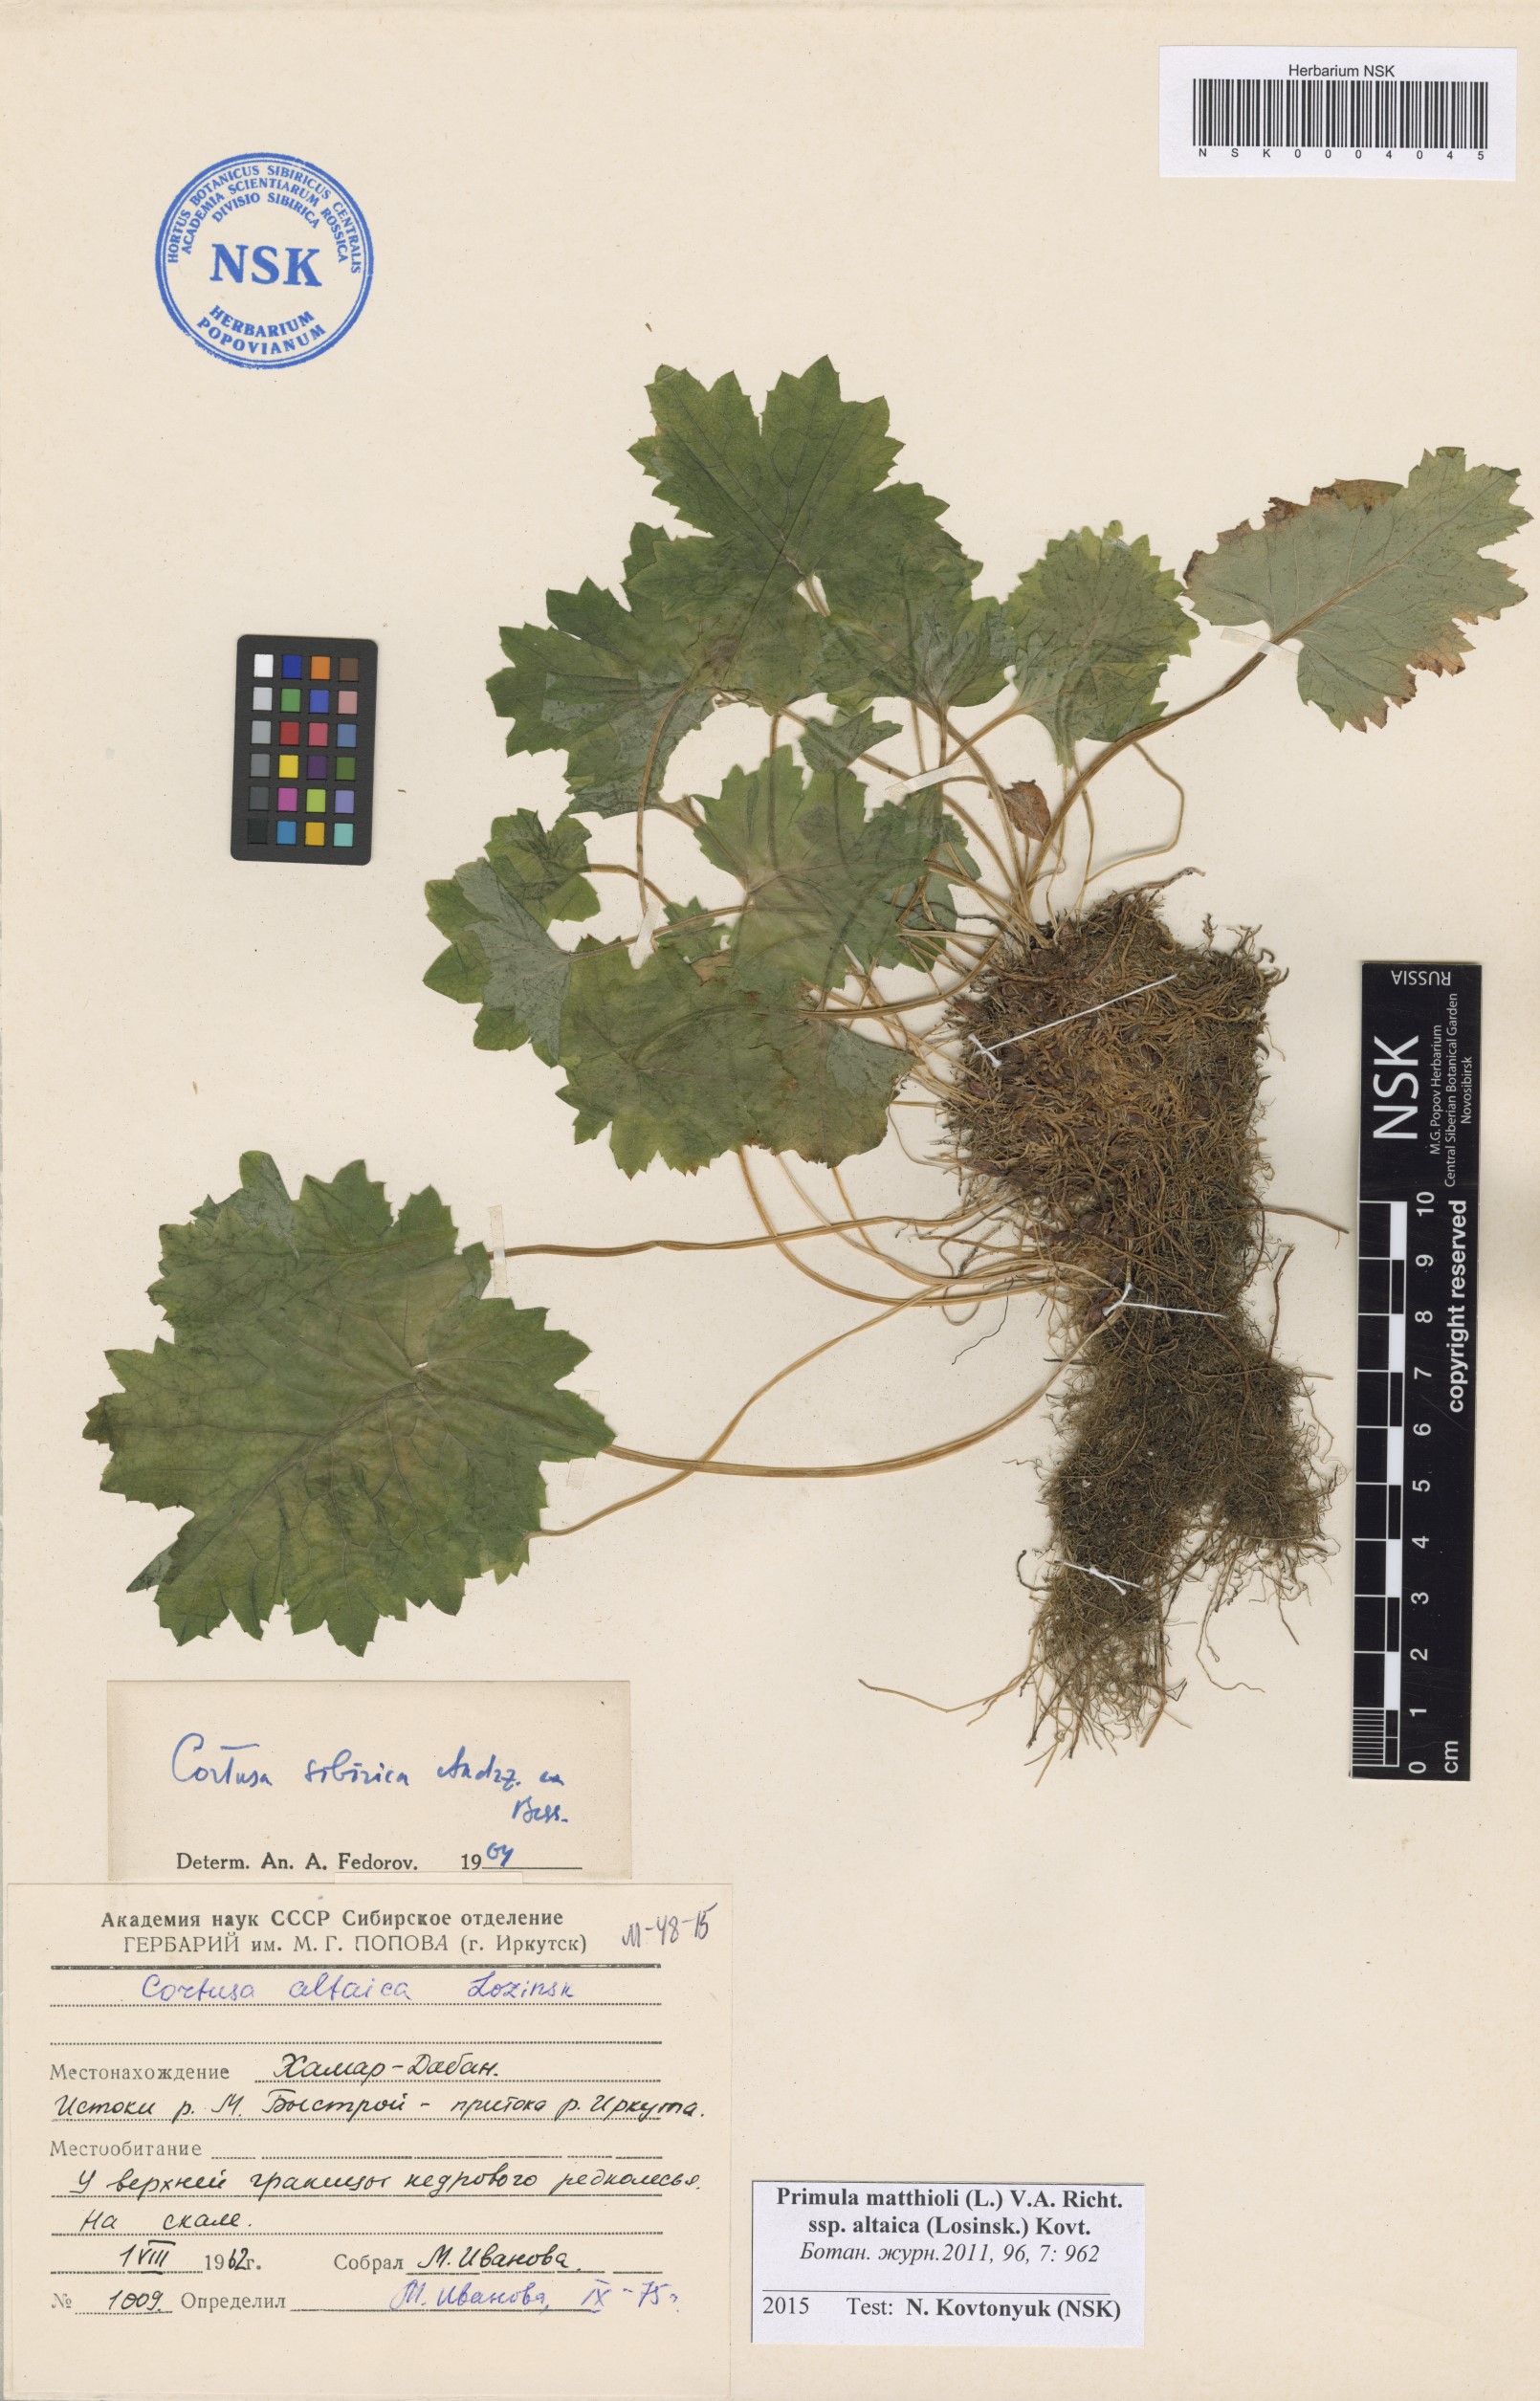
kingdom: Plantae
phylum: Tracheophyta
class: Magnoliopsida
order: Ericales
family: Primulaceae
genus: Primula
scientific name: Primula matthioli
